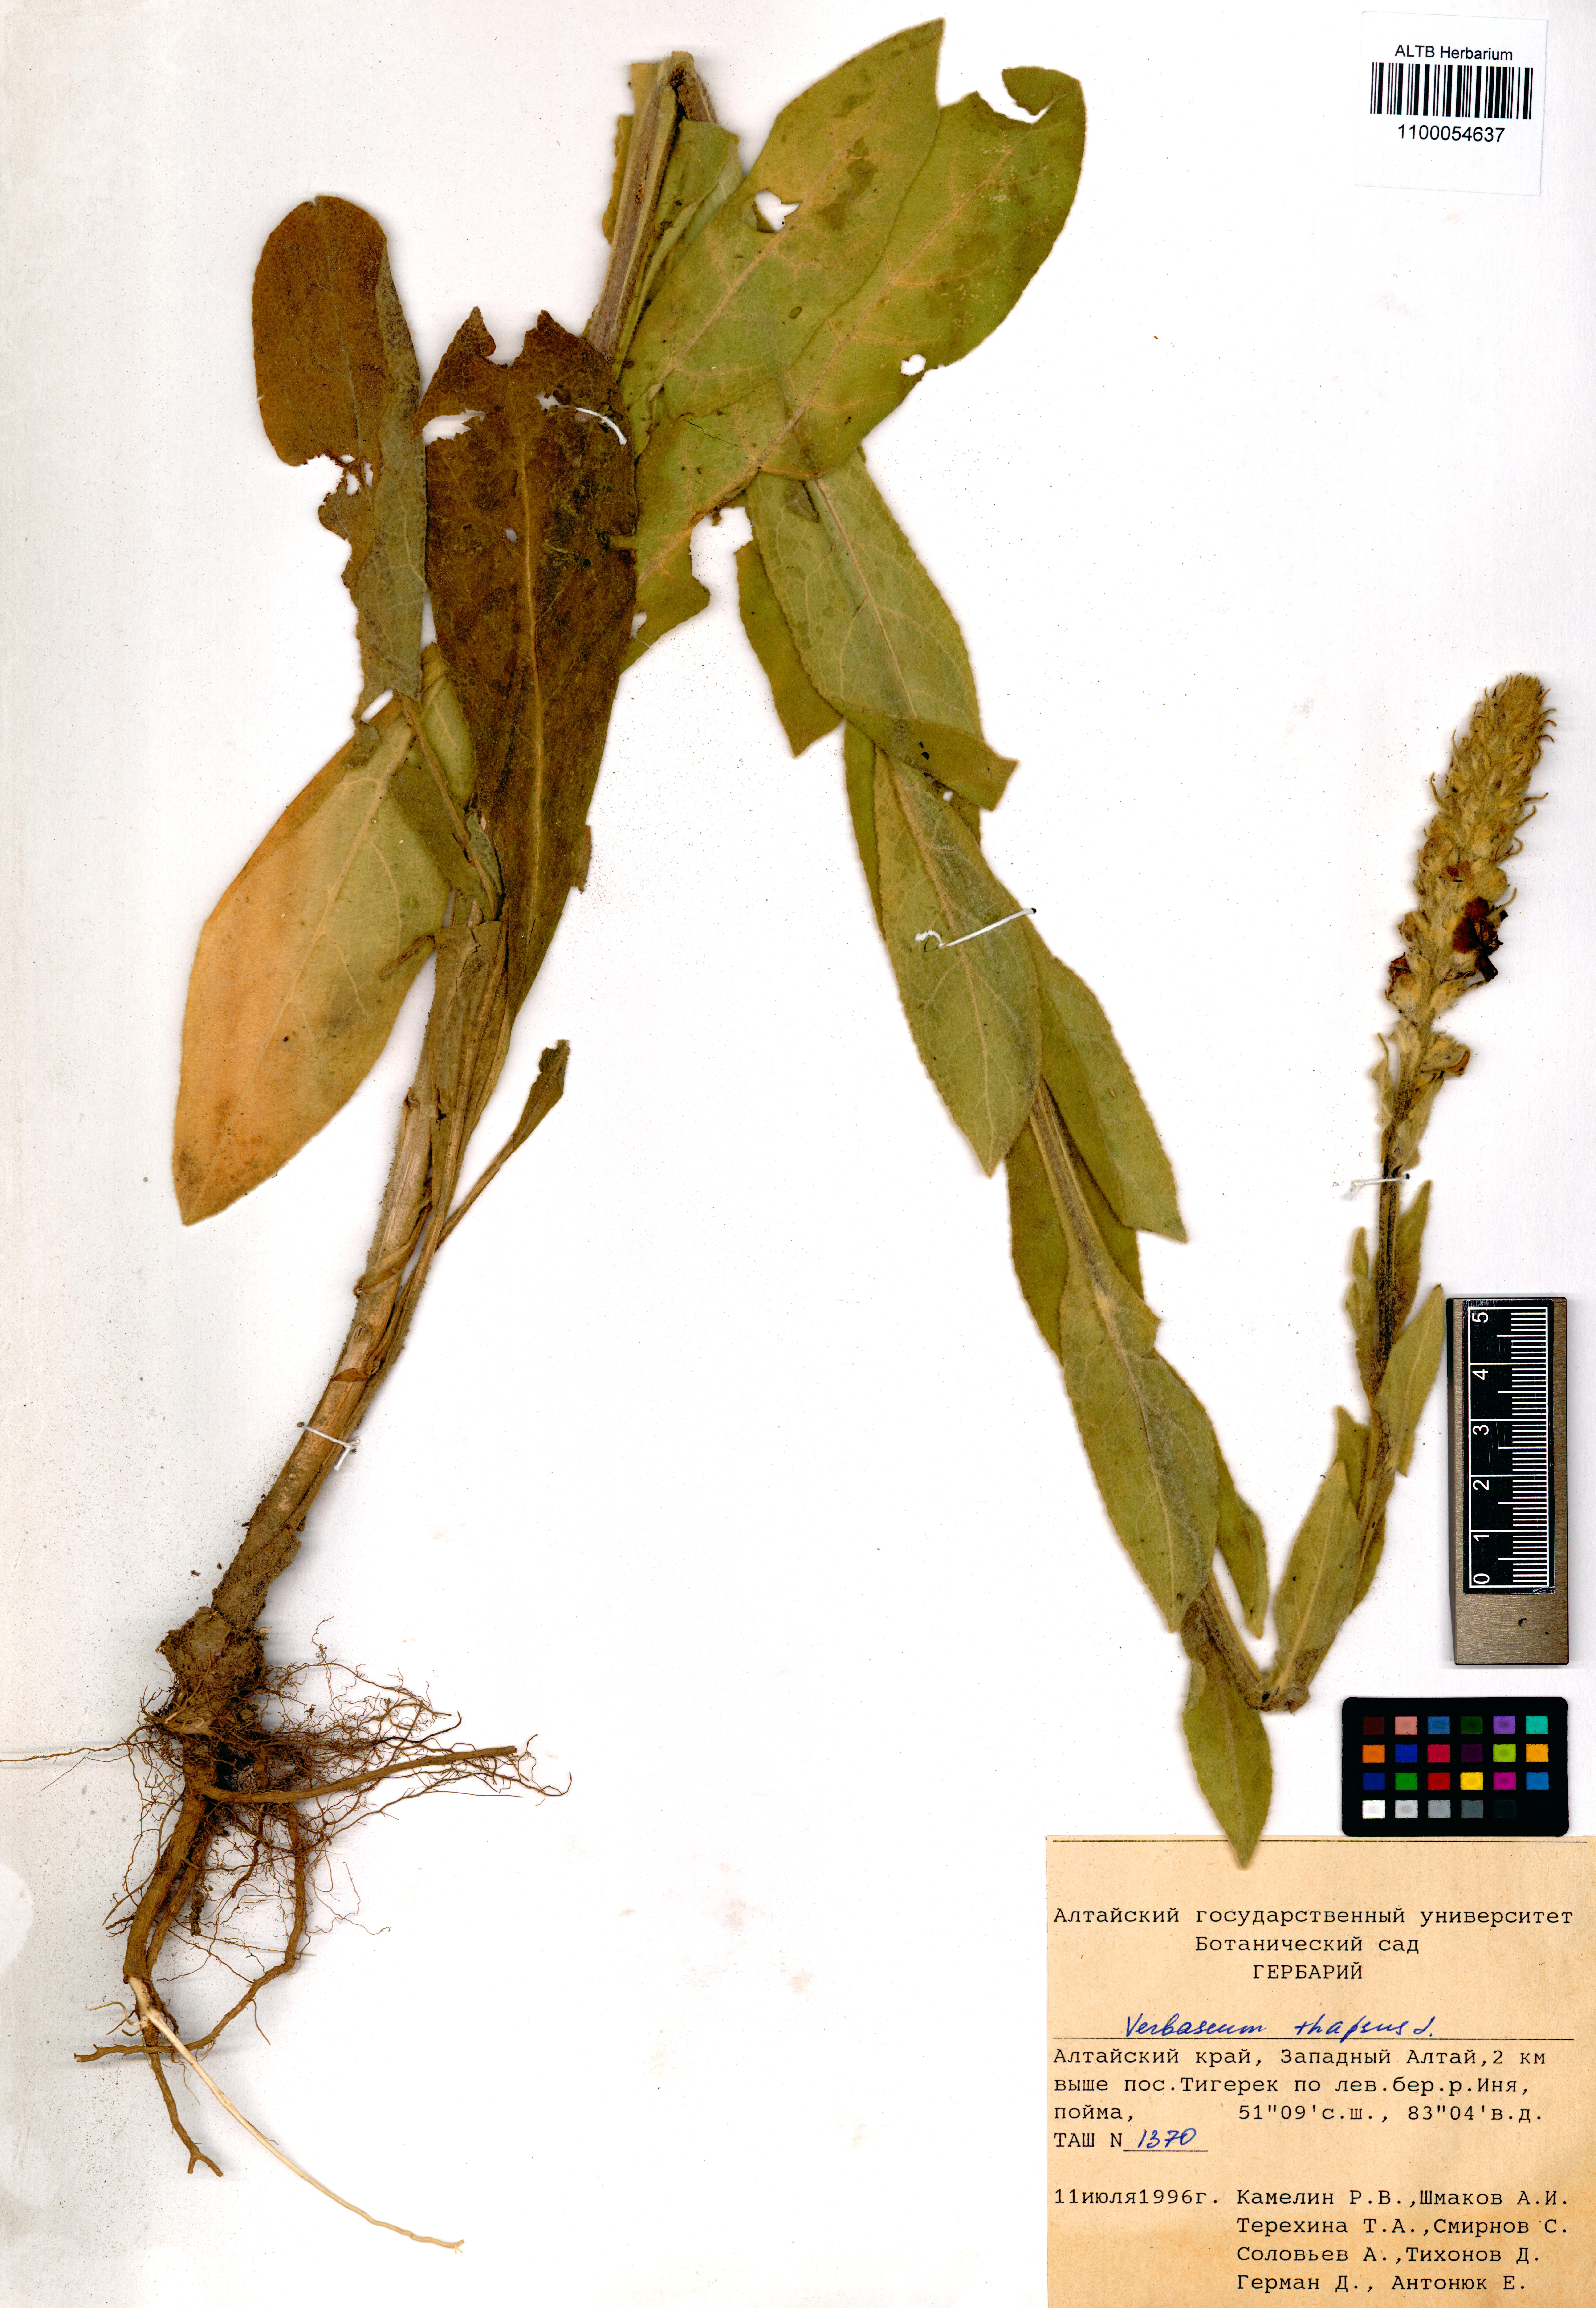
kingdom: Plantae
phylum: Tracheophyta
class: Magnoliopsida
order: Lamiales
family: Scrophulariaceae
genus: Verbascum
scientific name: Verbascum thapsus
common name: Common mullein
